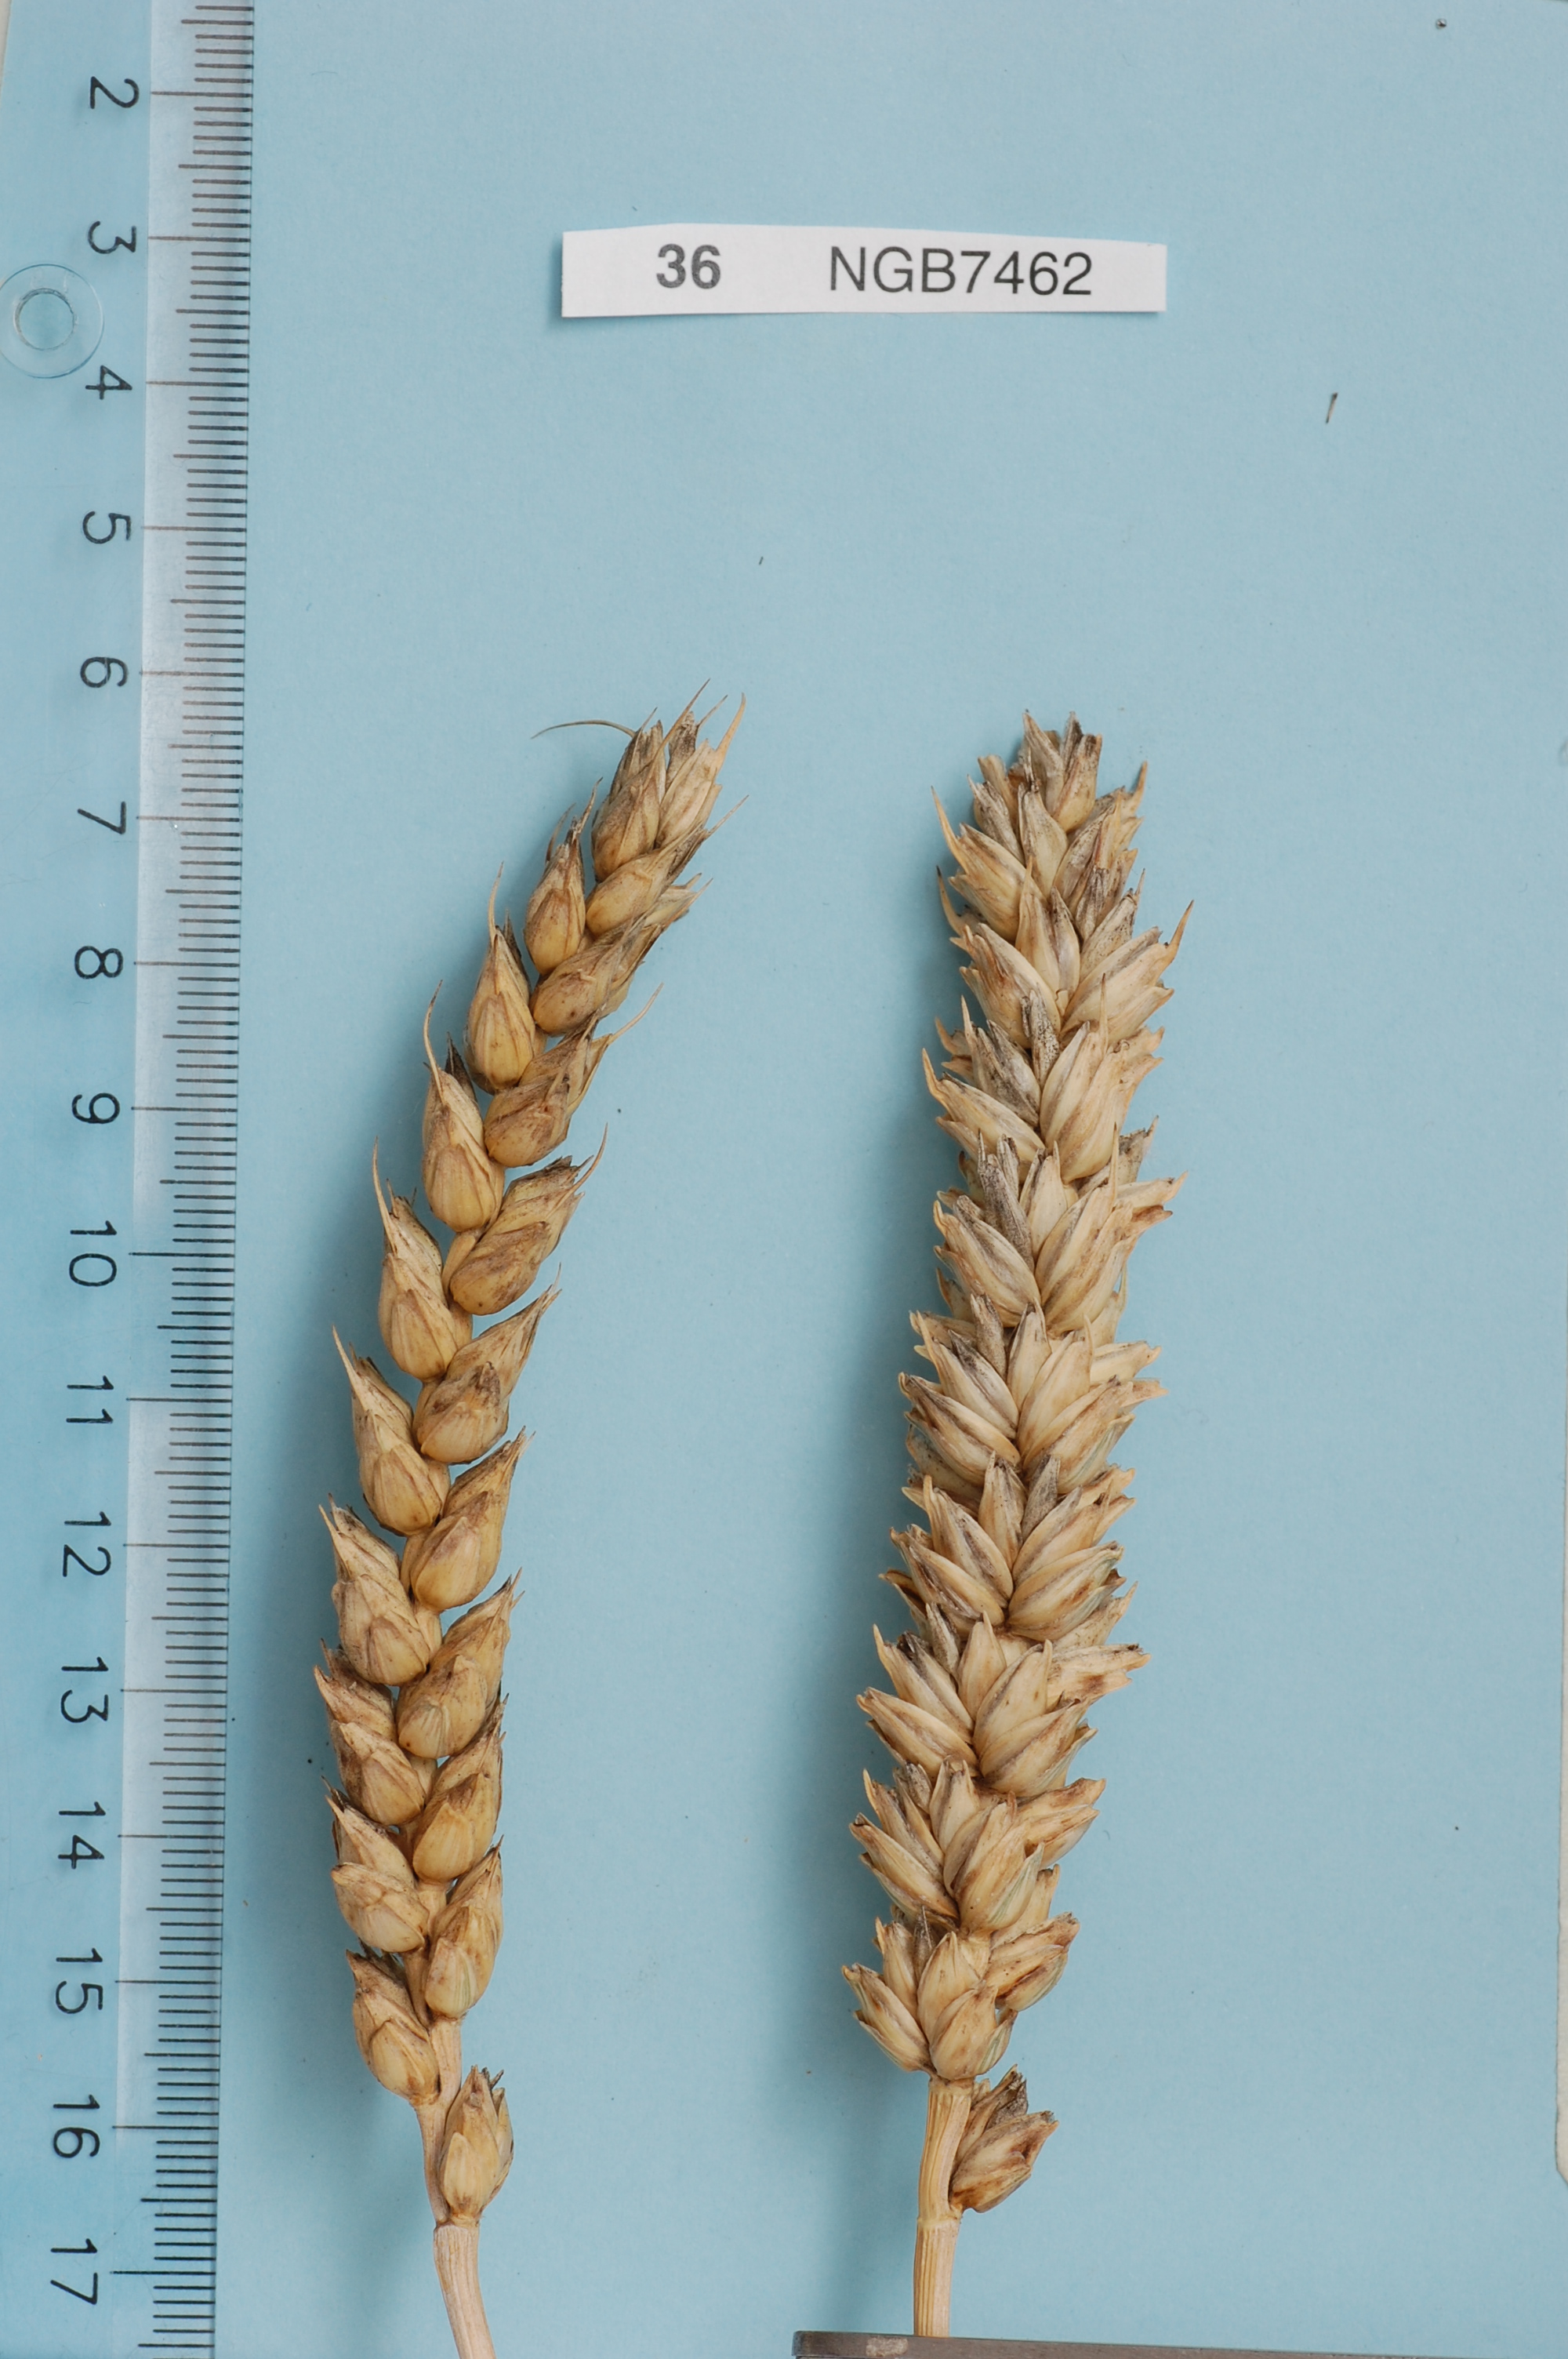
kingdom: Plantae
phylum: Tracheophyta
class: Liliopsida
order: Poales
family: Poaceae
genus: Triticum
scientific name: Triticum aestivum
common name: Common wheat
